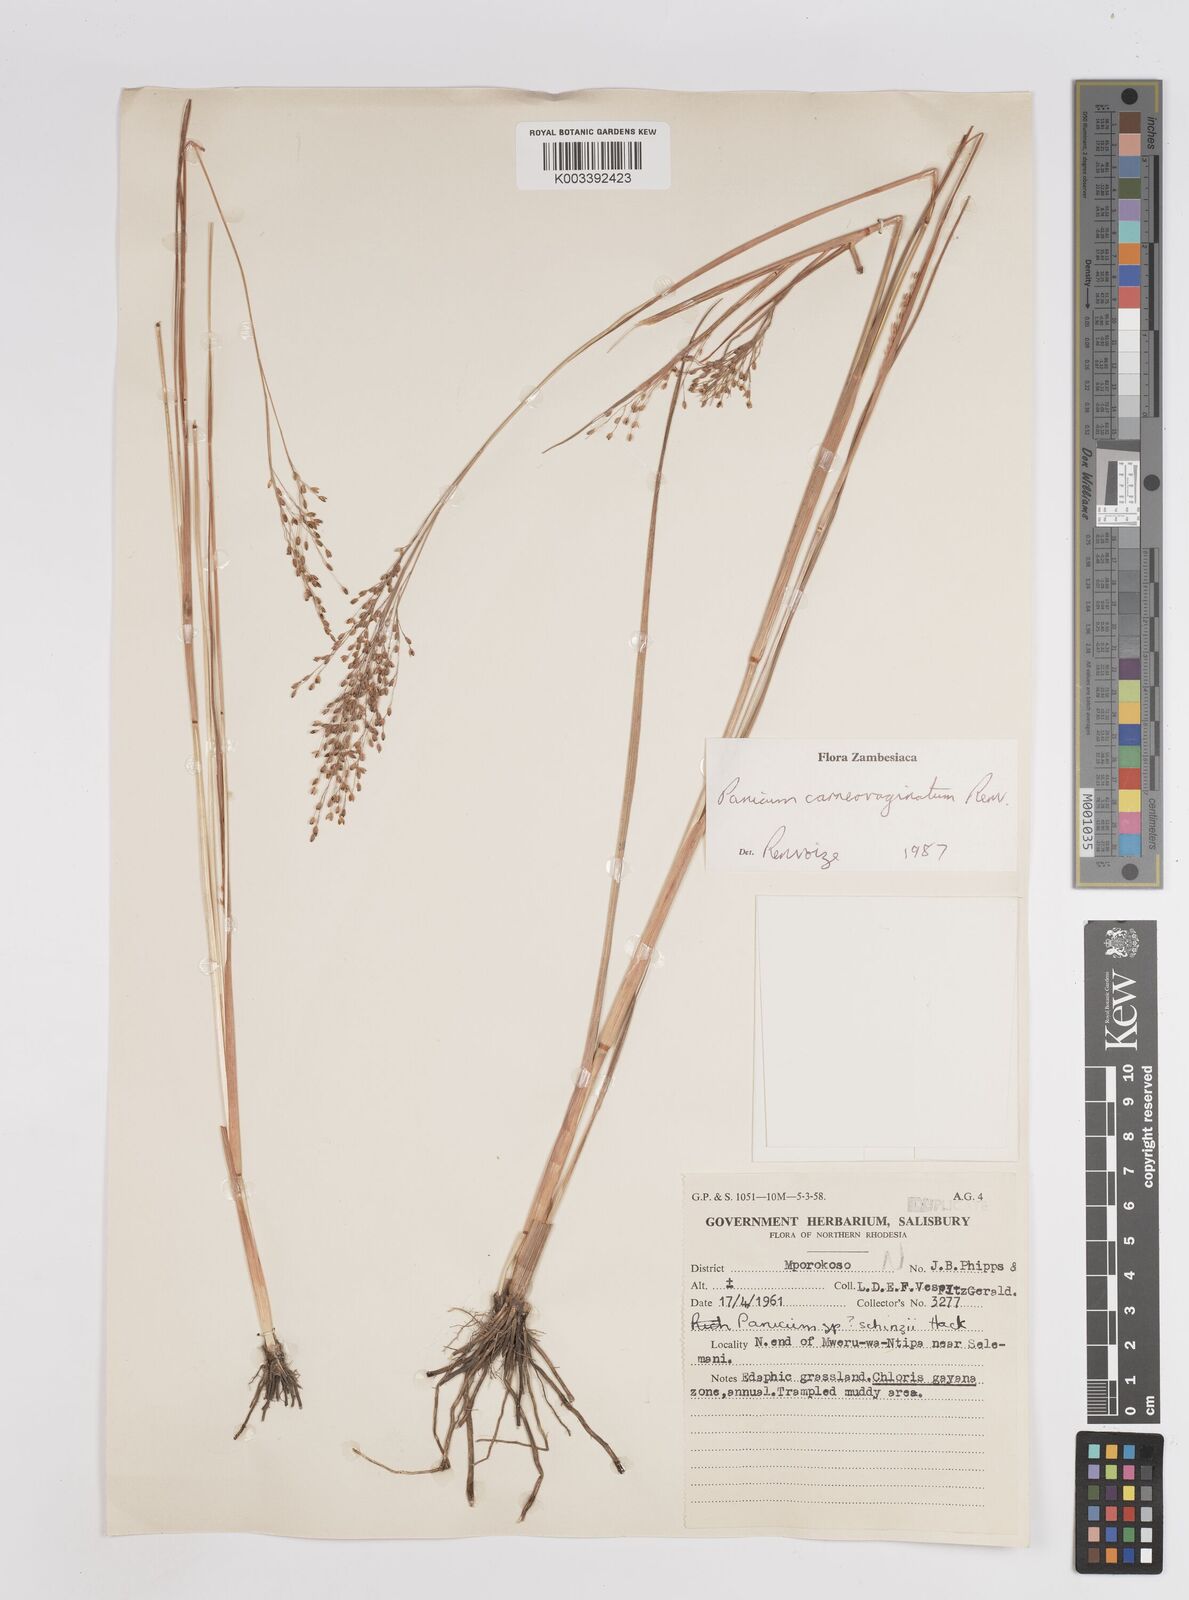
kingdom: Plantae
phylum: Tracheophyta
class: Liliopsida
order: Poales
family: Poaceae
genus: Panicum
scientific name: Panicum carneovaginatum
